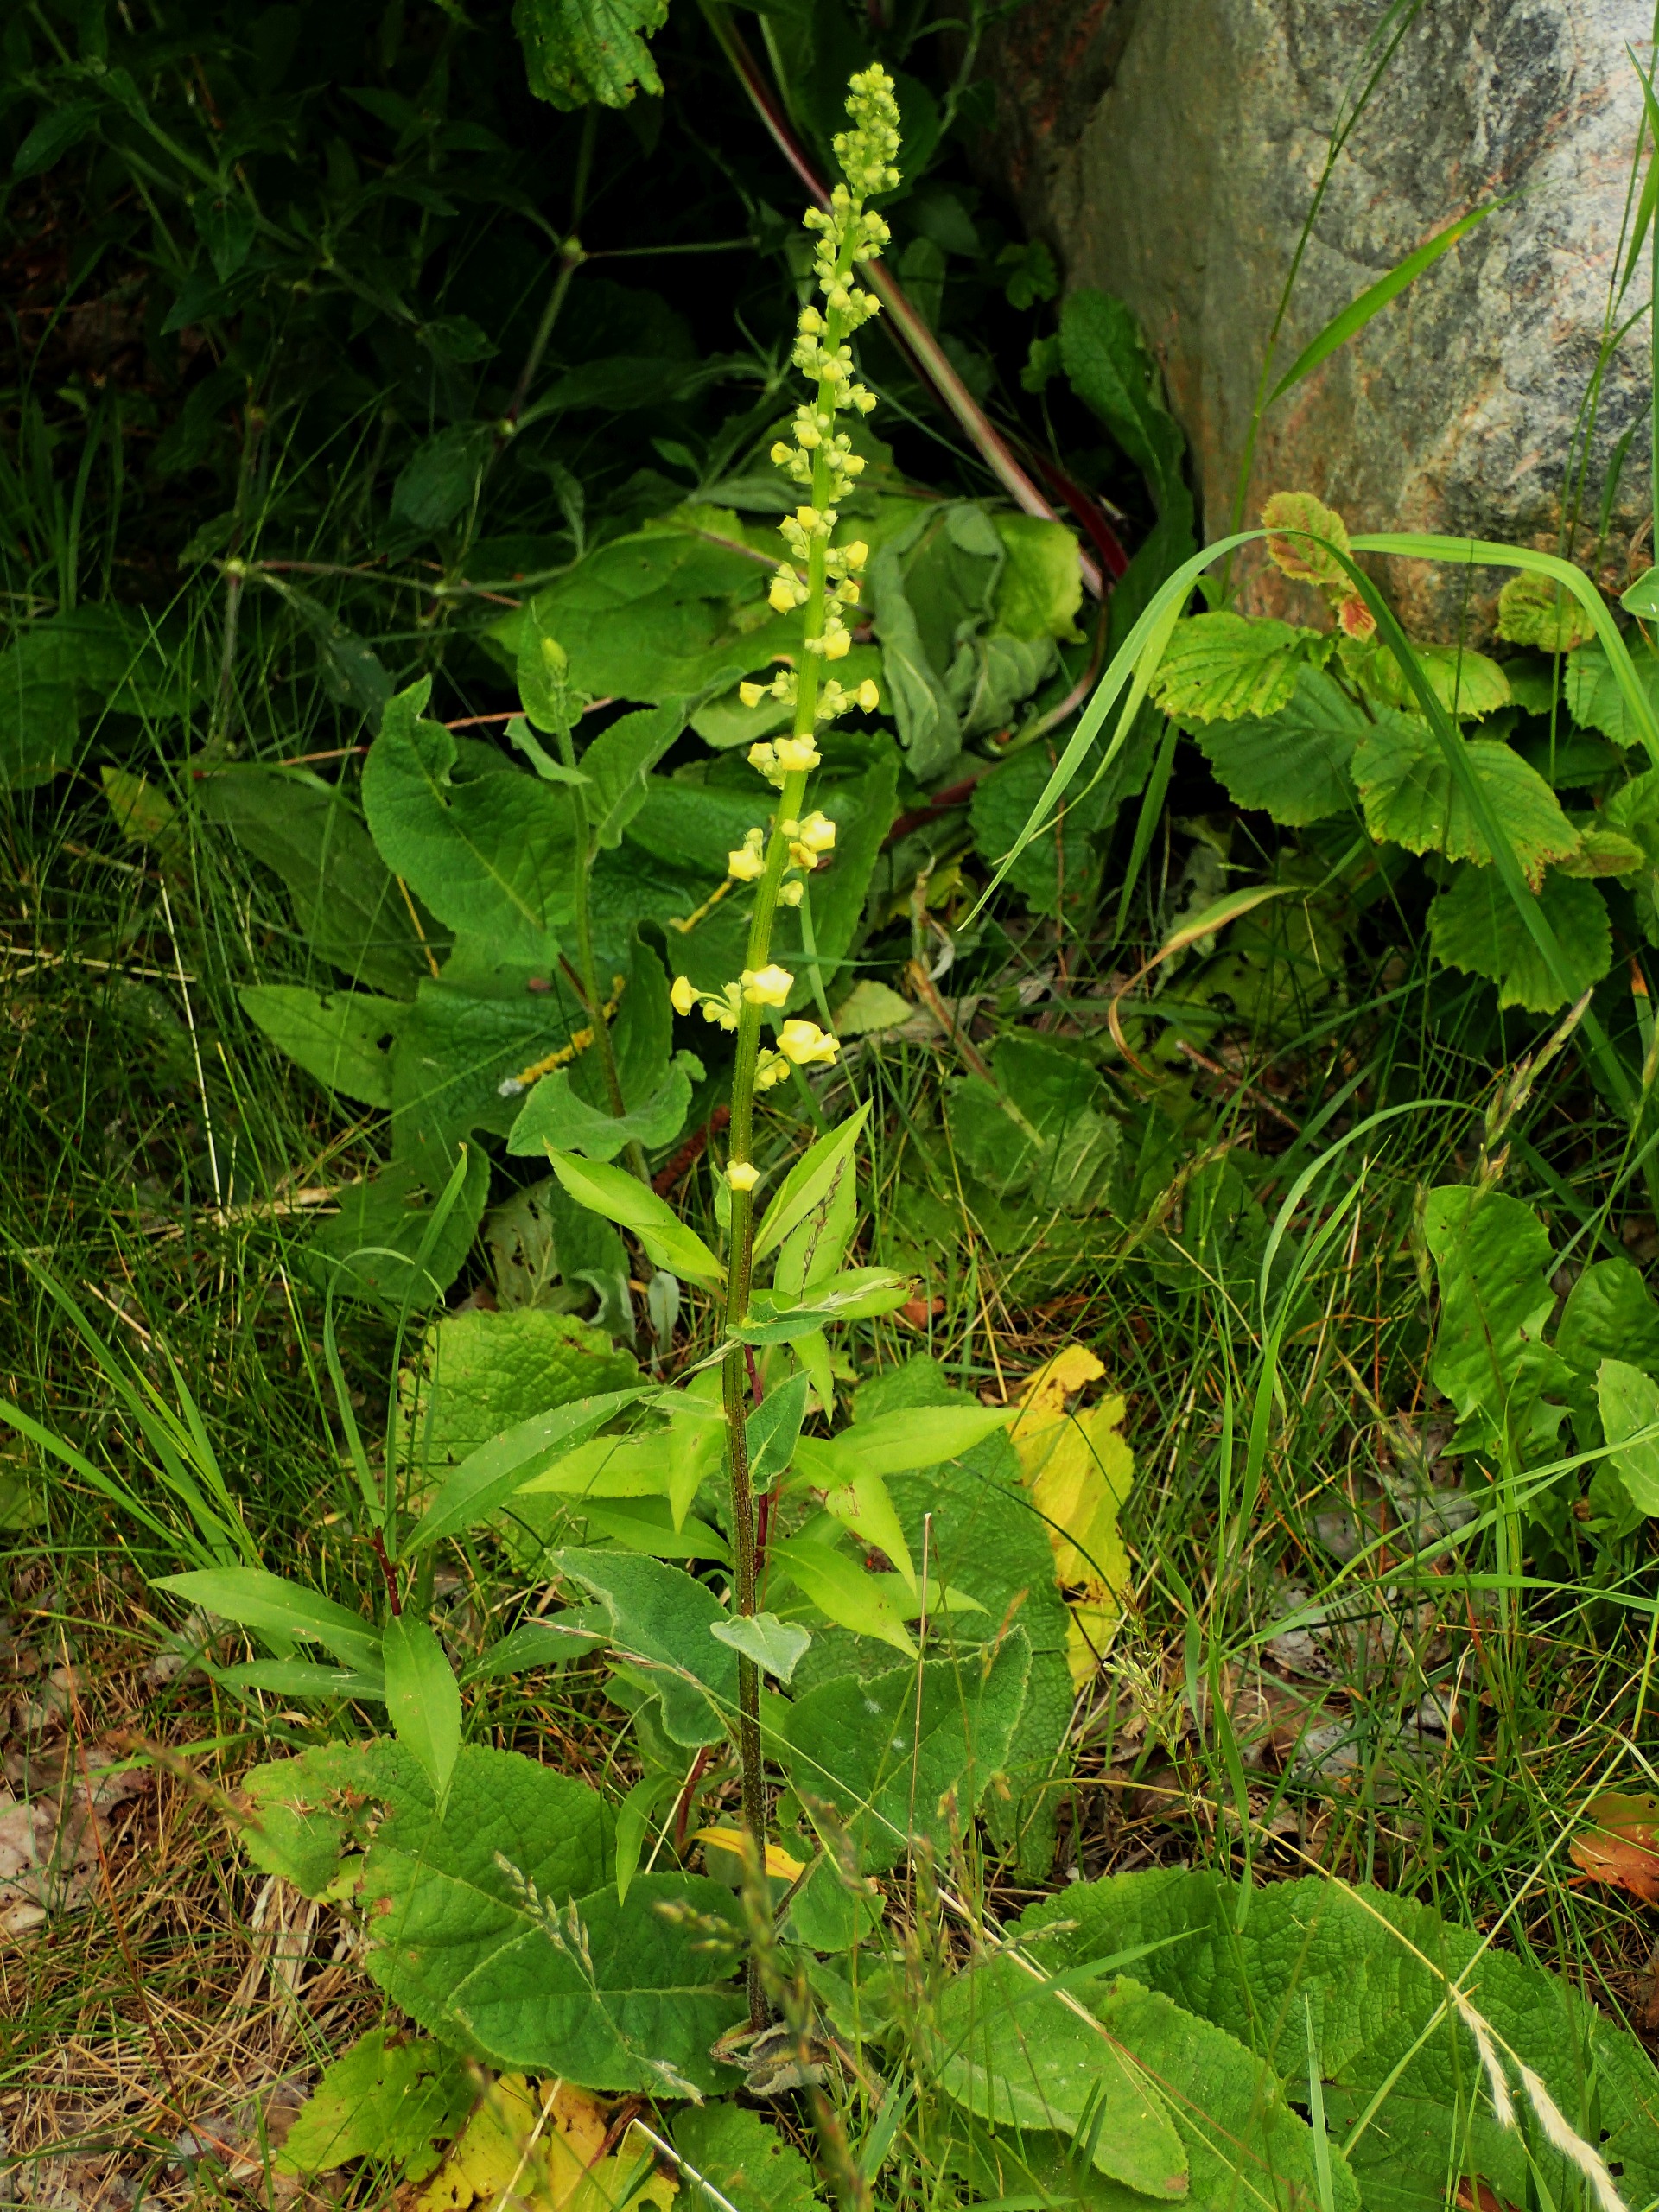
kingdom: Plantae
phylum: Tracheophyta
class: Magnoliopsida
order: Lamiales
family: Scrophulariaceae
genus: Verbascum
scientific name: Verbascum nigrum
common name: Mørk kongelys
